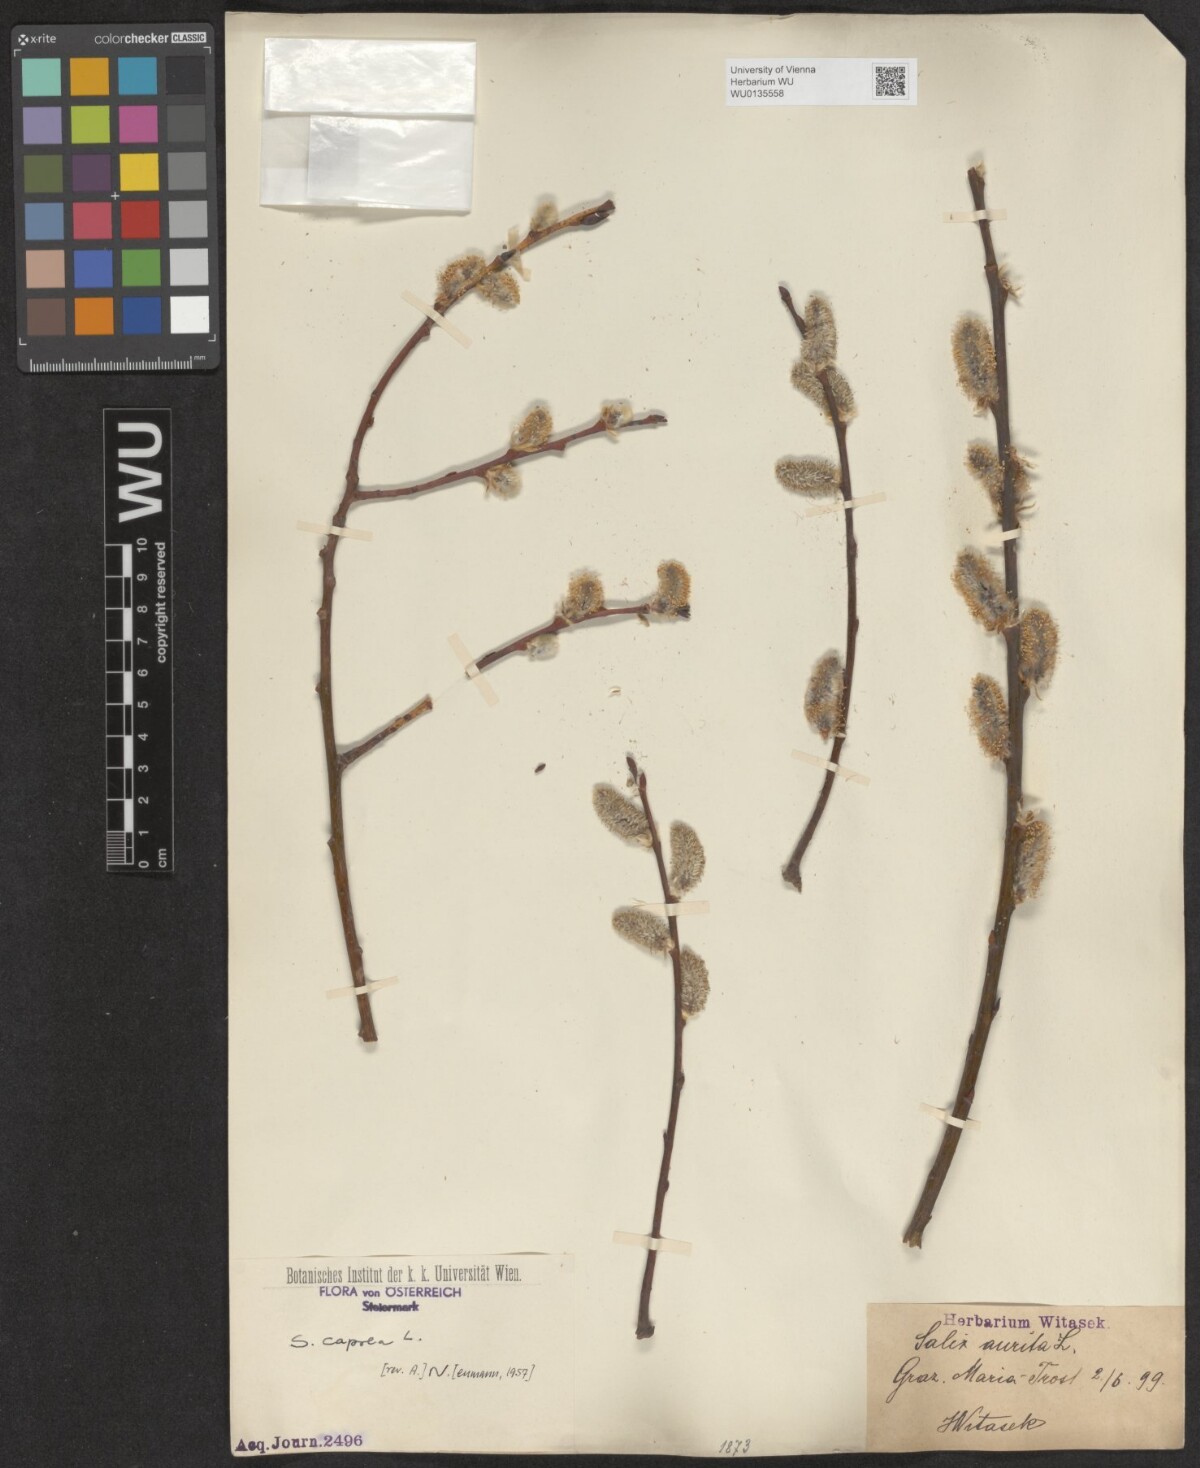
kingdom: Plantae
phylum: Tracheophyta
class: Magnoliopsida
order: Malpighiales
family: Salicaceae
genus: Salix
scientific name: Salix caprea
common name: Goat willow
